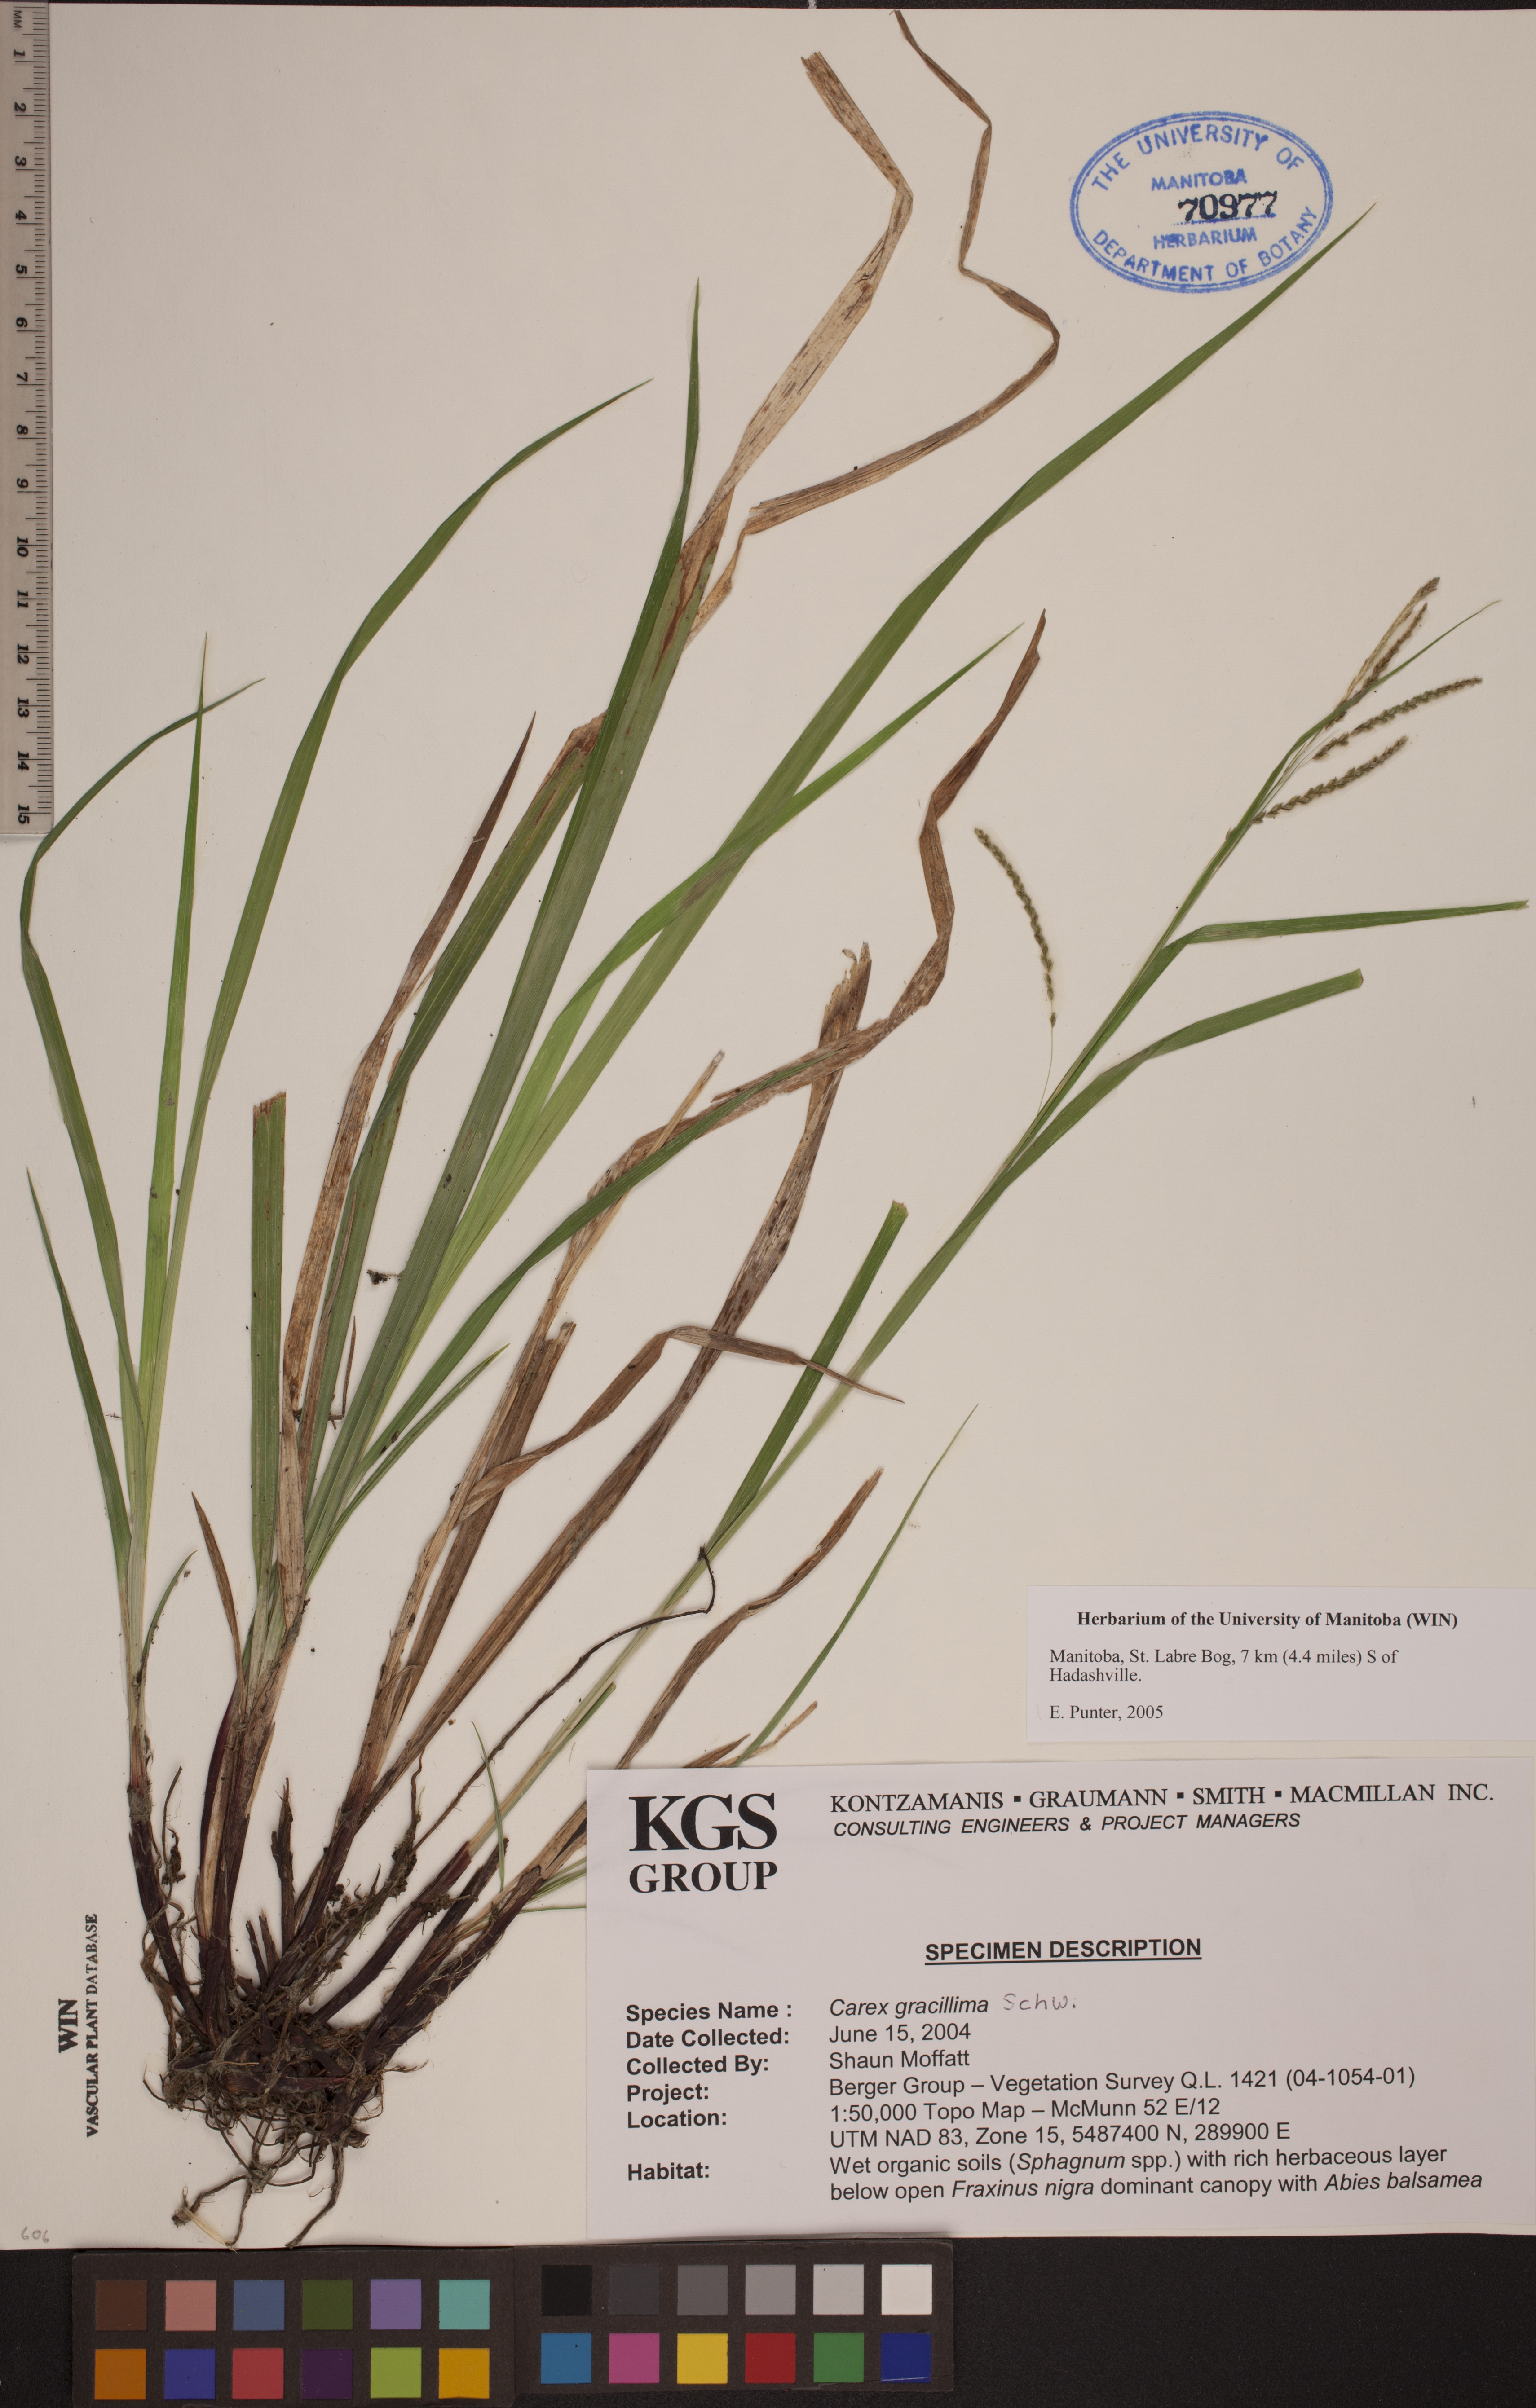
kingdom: Plantae
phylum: Tracheophyta
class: Liliopsida
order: Poales
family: Cyperaceae
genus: Carex
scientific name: Carex gracillima
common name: Graceful sedge
